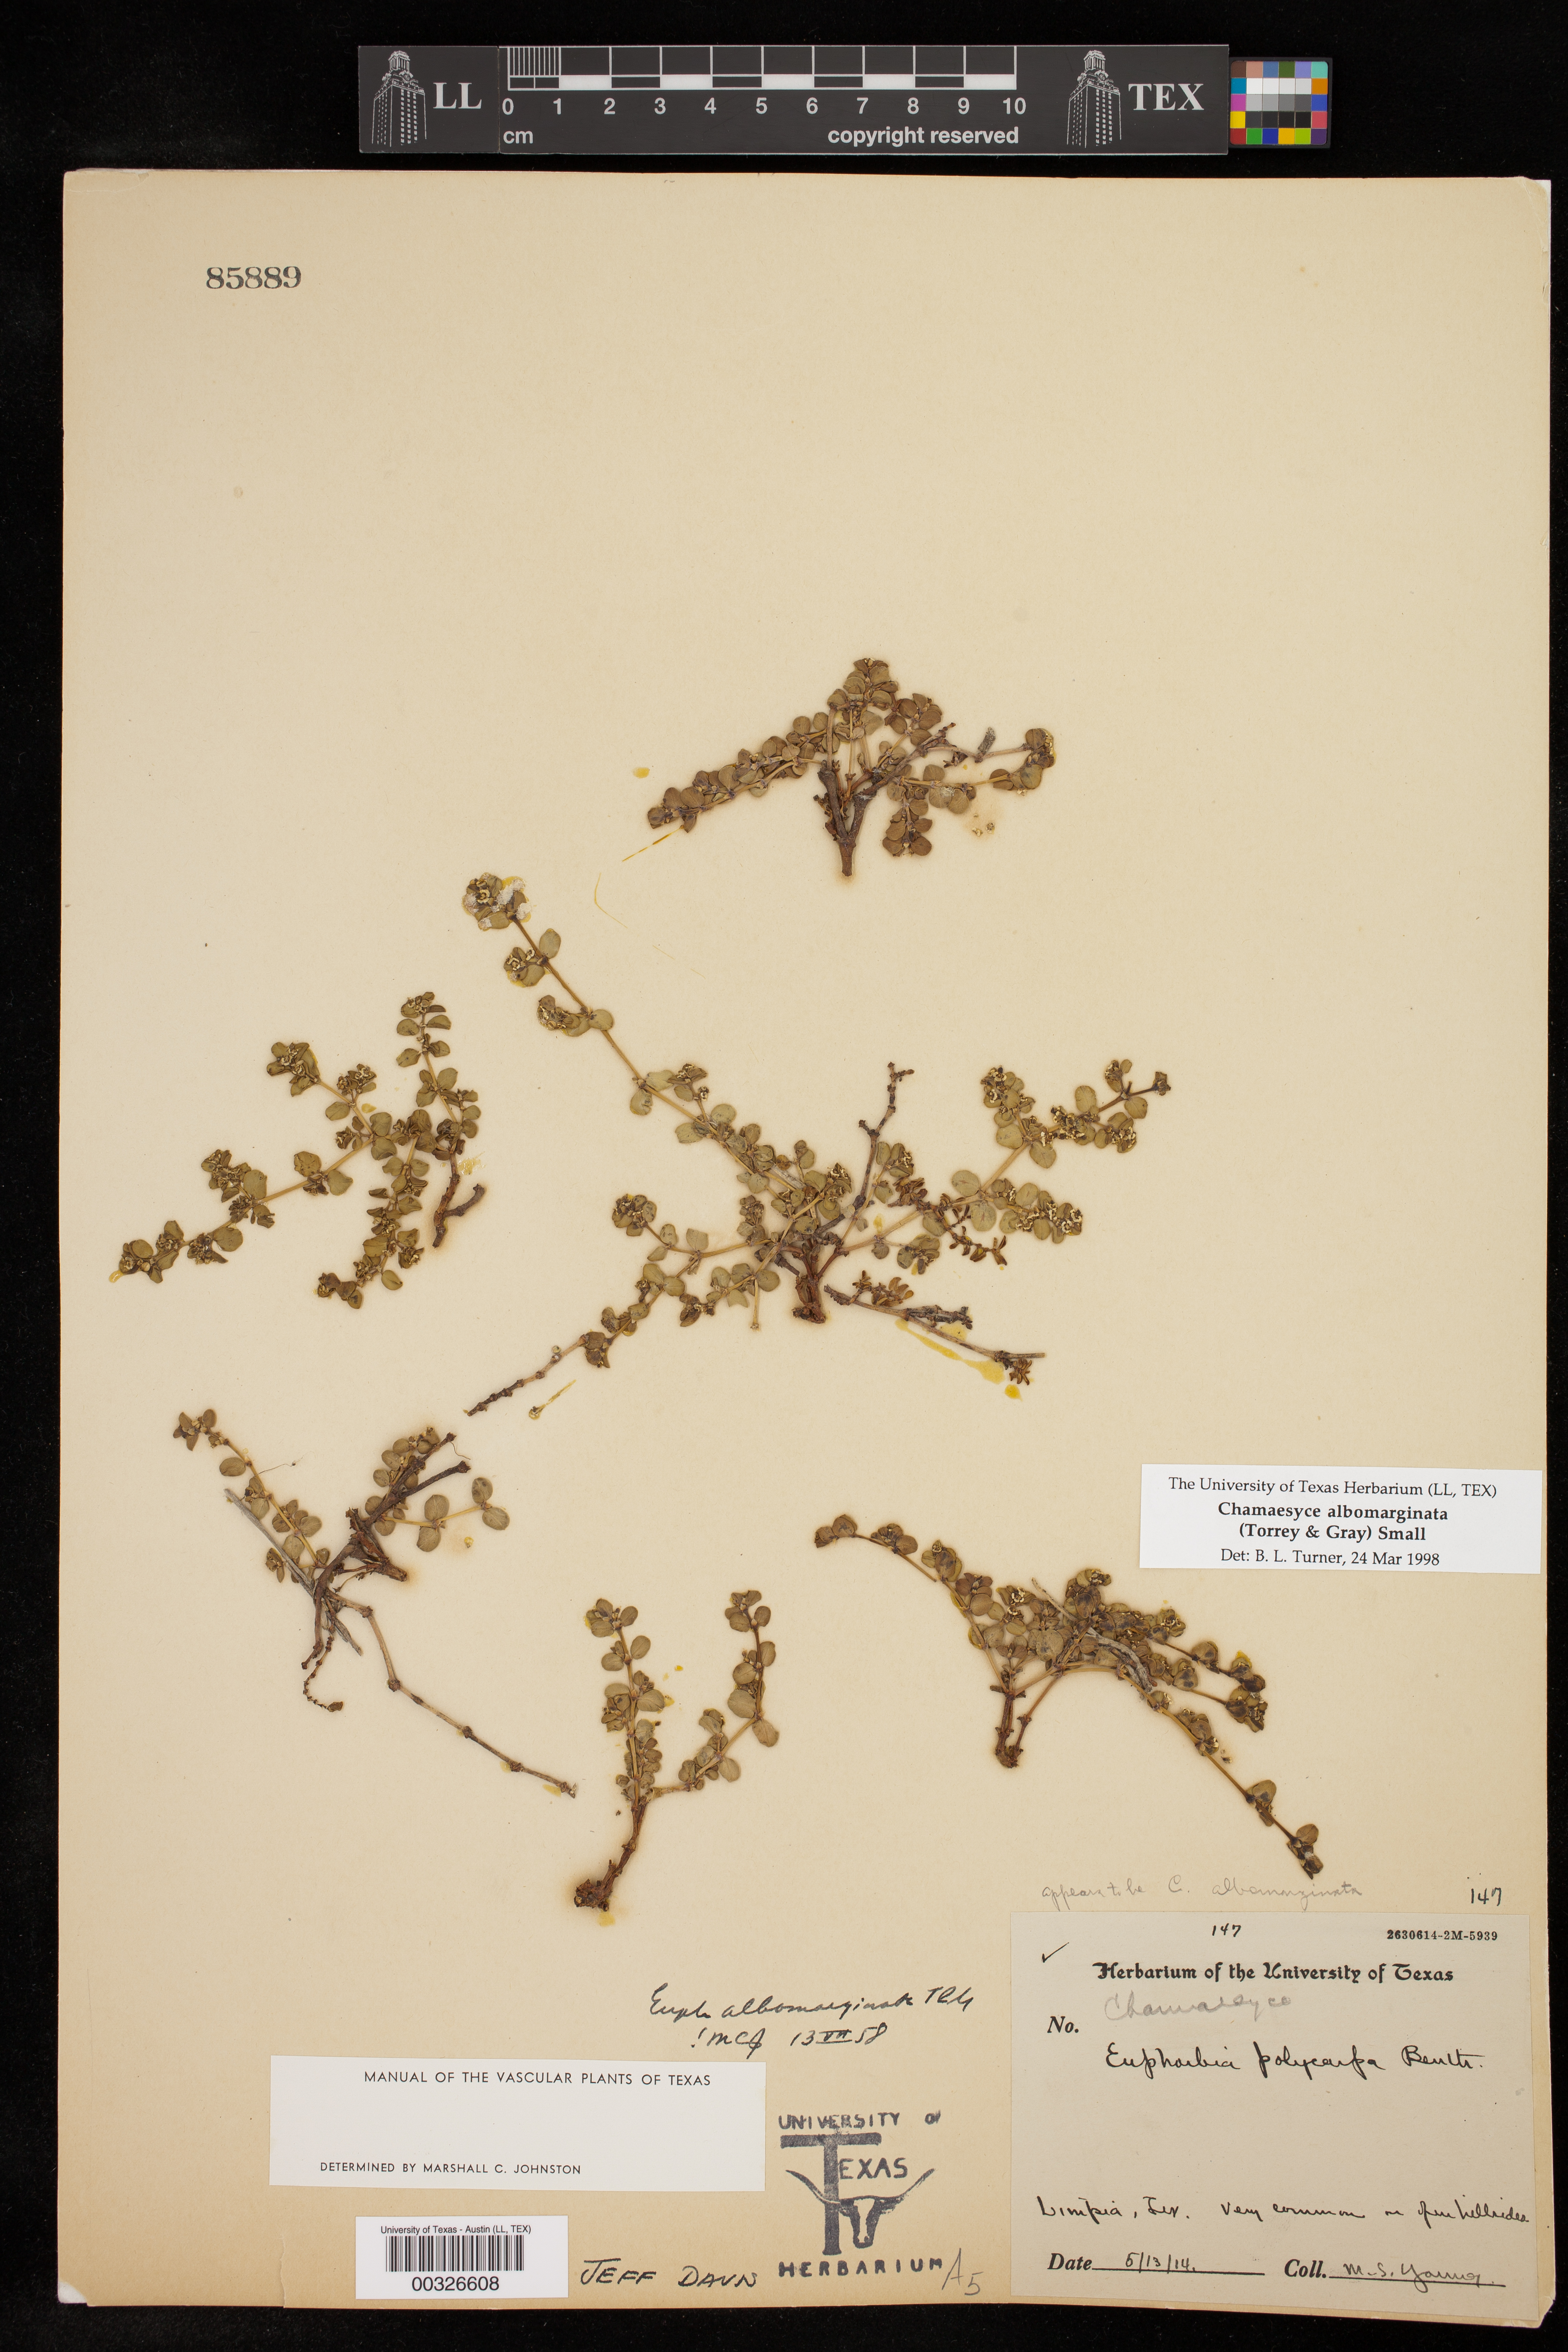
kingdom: Plantae
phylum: Tracheophyta
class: Magnoliopsida
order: Malpighiales
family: Euphorbiaceae
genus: Euphorbia
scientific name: Euphorbia albomarginata
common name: Whitemargin sandmat
